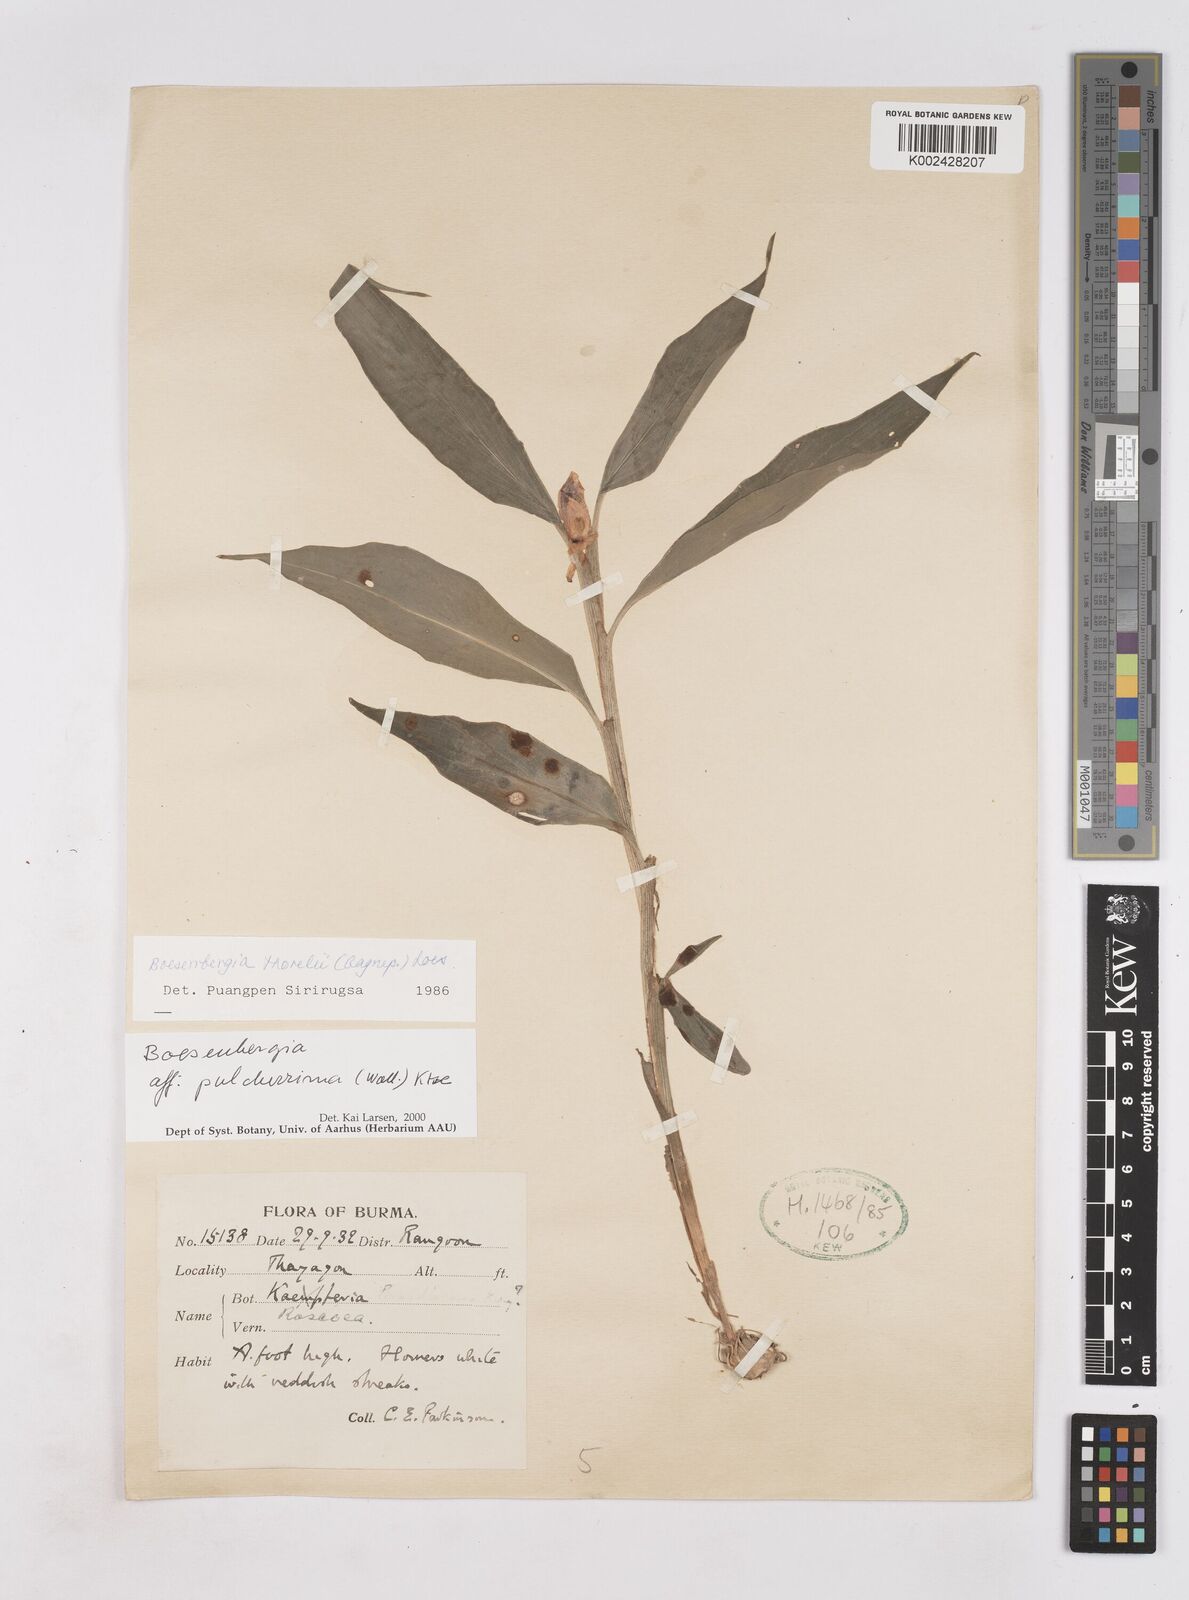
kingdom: Plantae
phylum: Tracheophyta
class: Liliopsida
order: Zingiberales
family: Zingiberaceae
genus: Boesenbergia
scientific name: Boesenbergia pulcherrima
